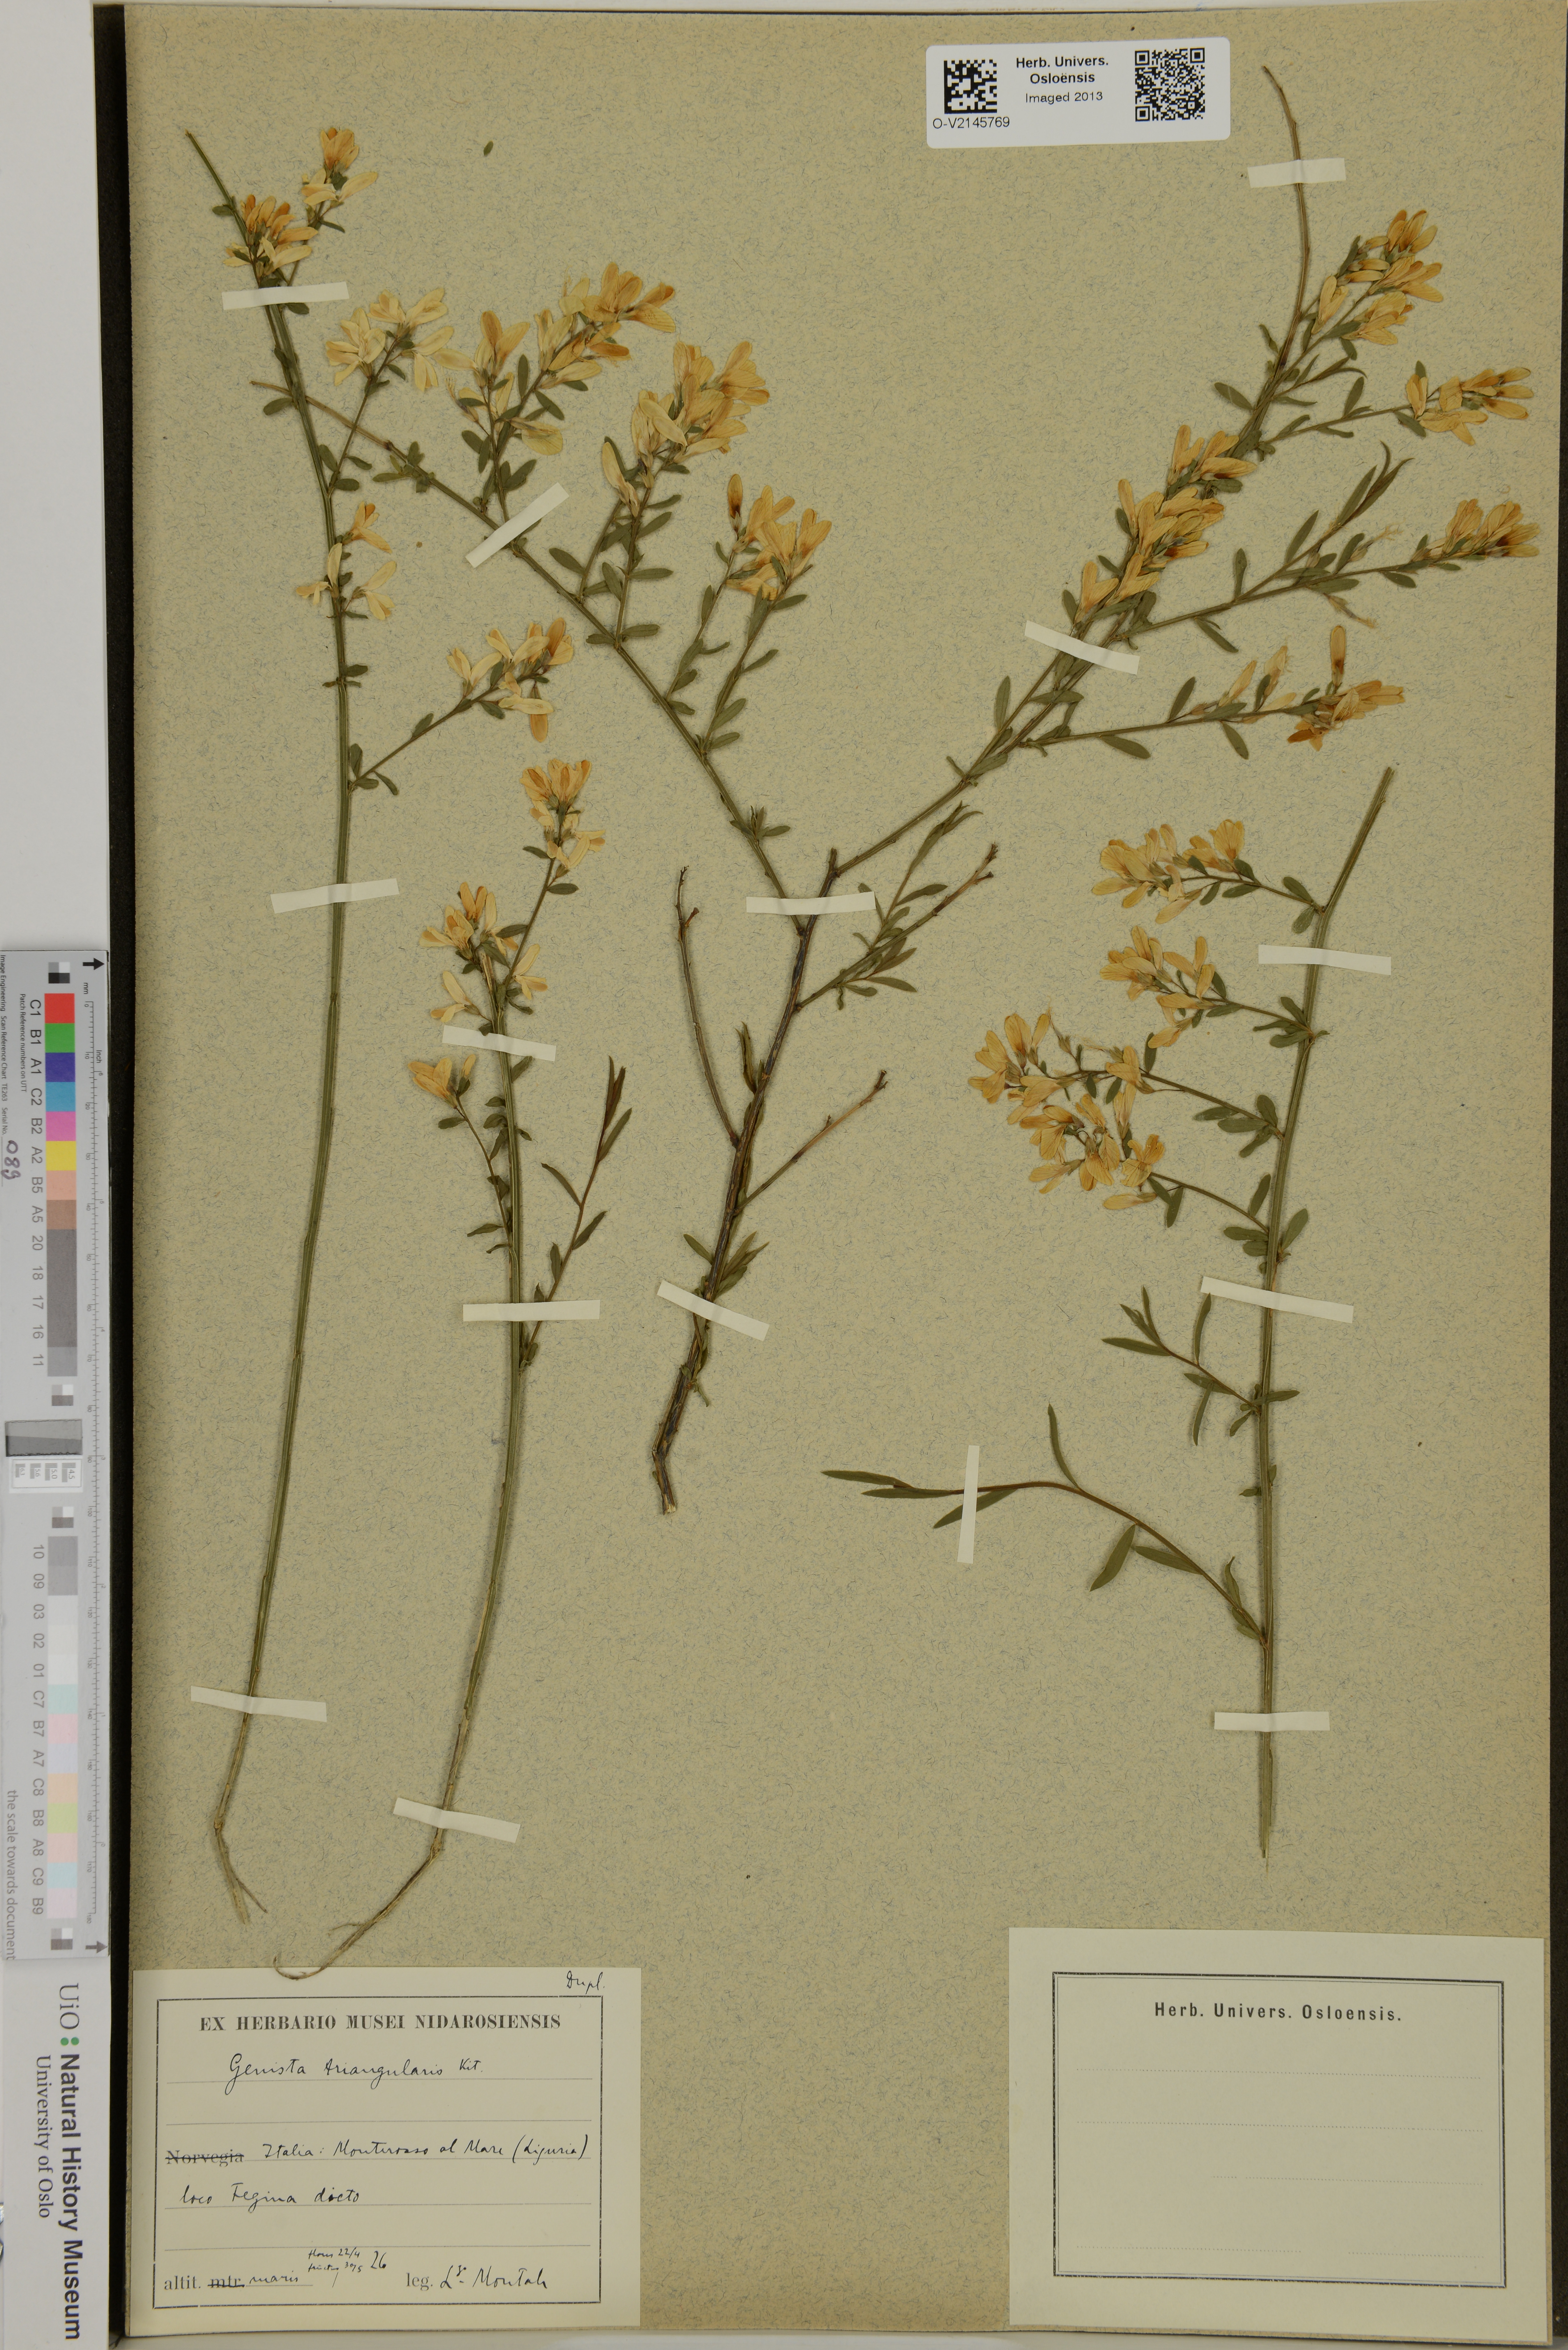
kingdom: Plantae
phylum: Tracheophyta
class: Magnoliopsida
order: Fabales
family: Fabaceae
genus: Genista
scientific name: Genista triangularis
